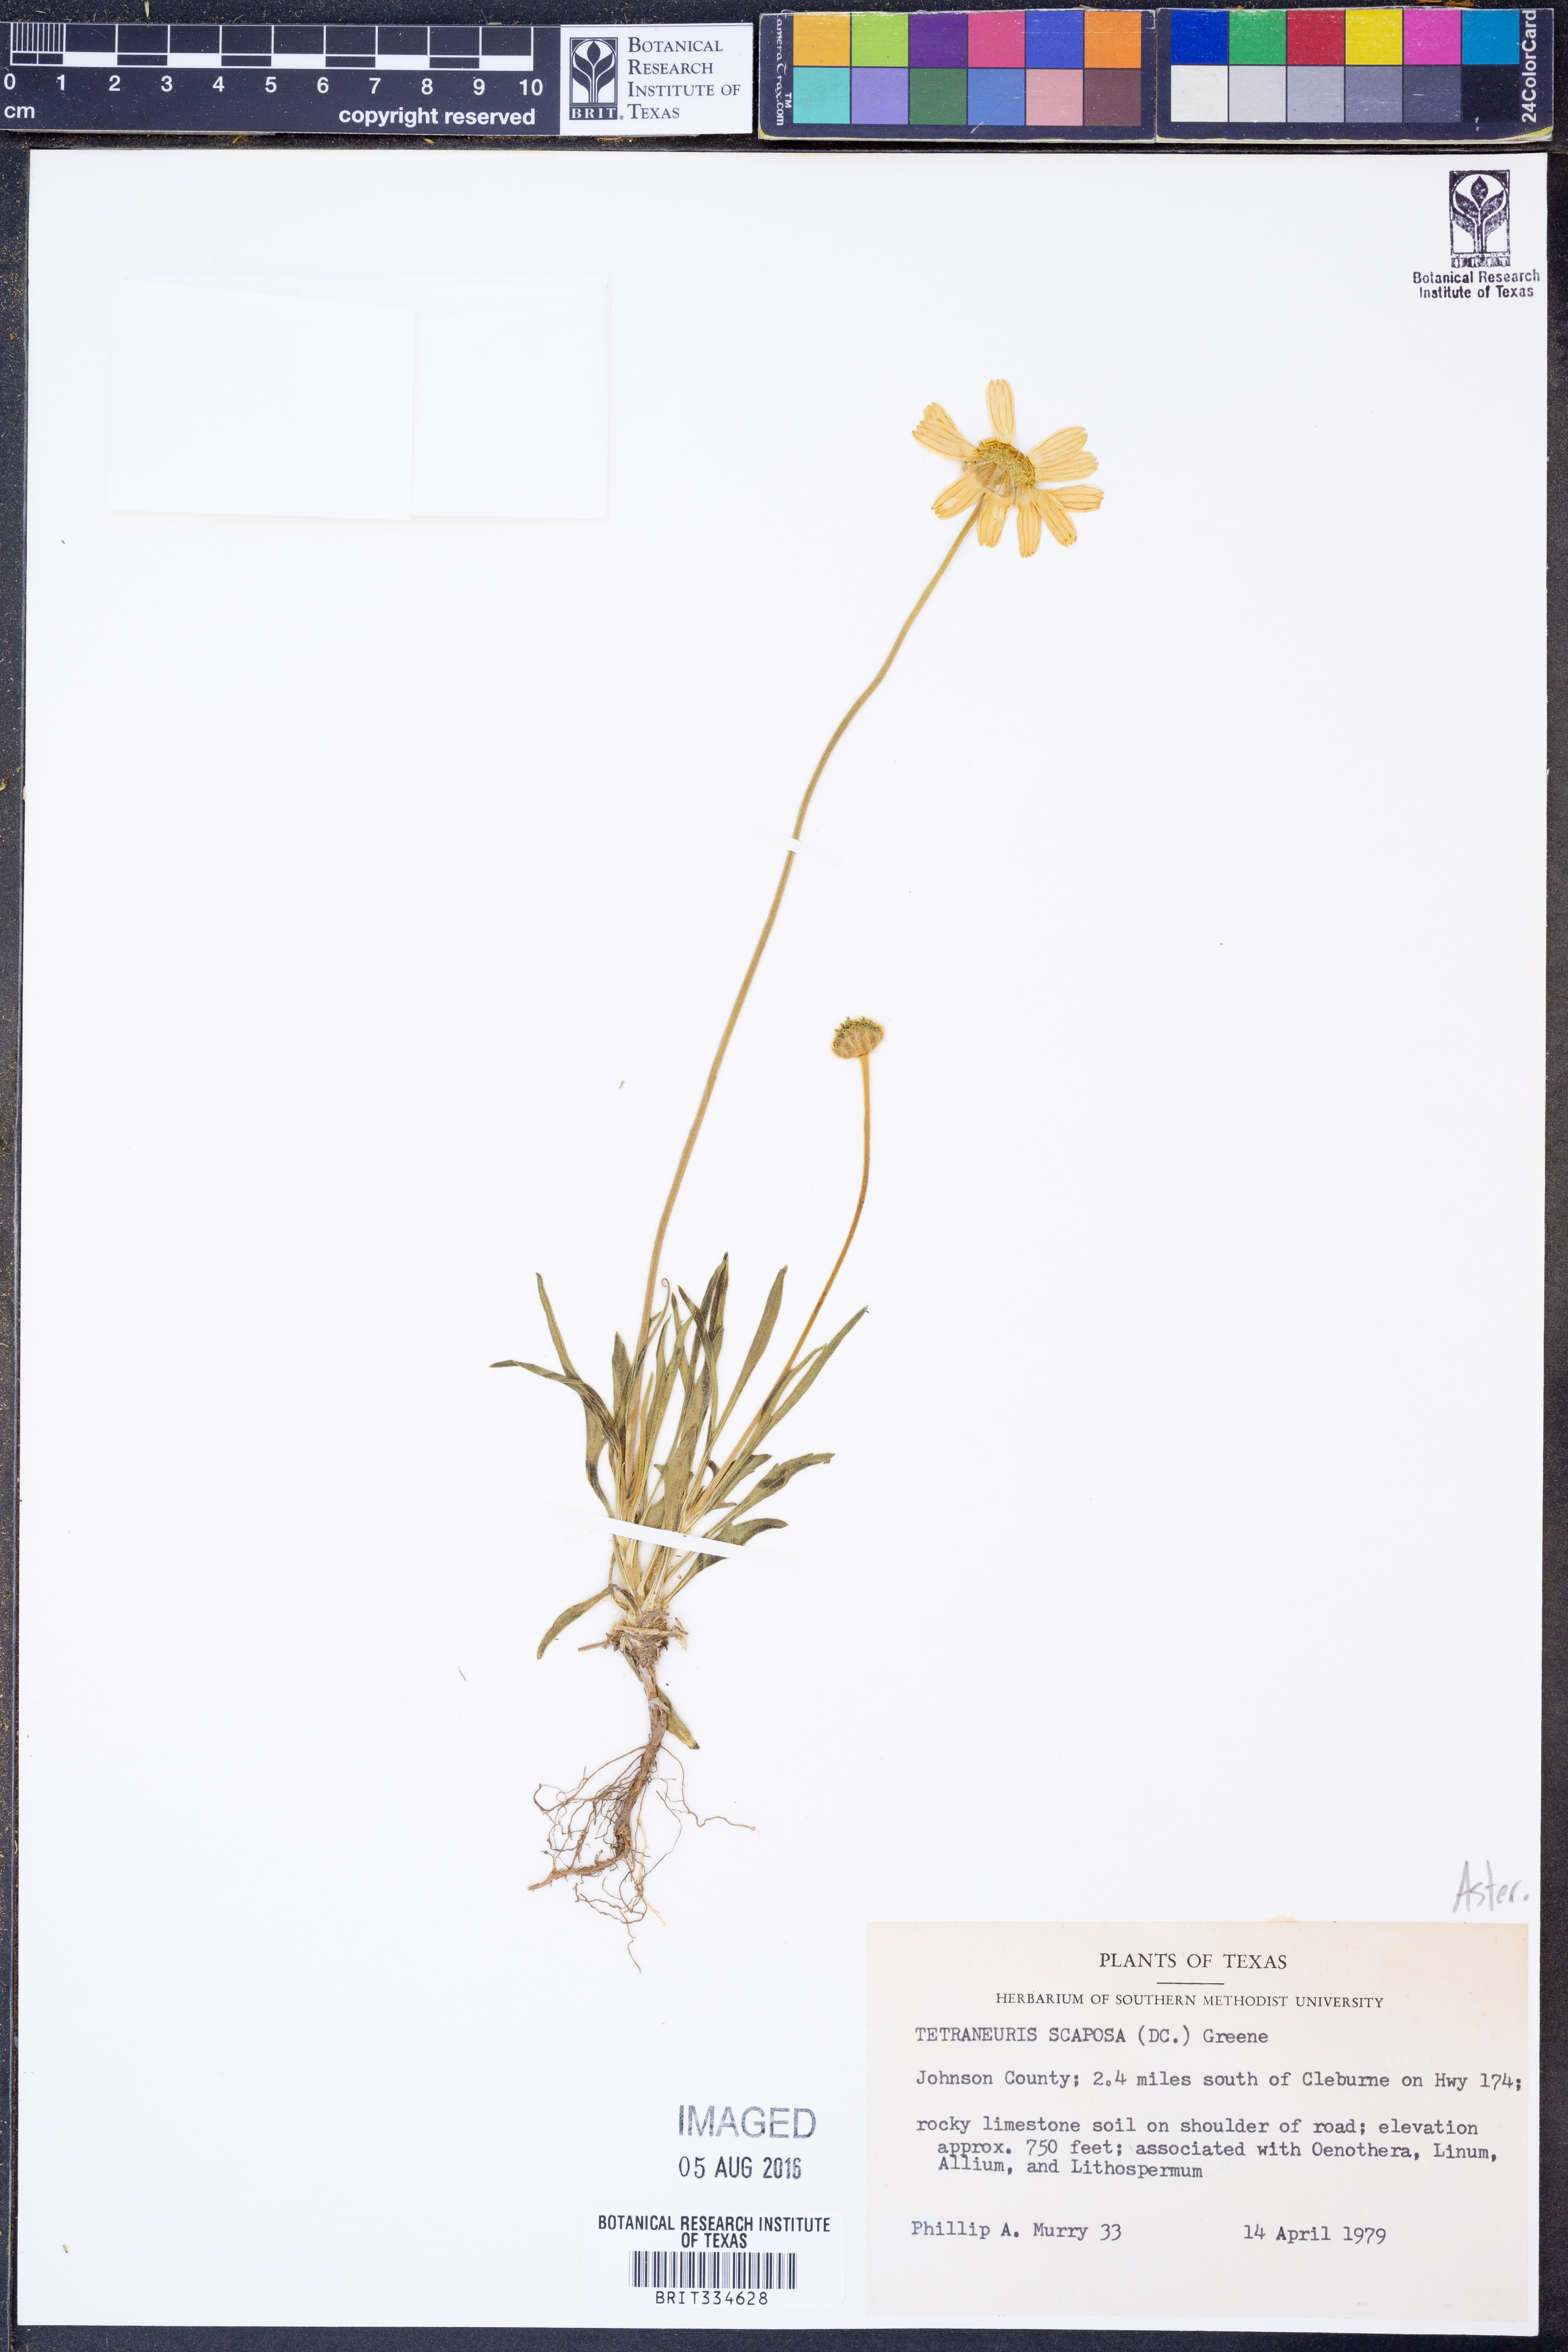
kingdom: Plantae
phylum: Tracheophyta
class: Magnoliopsida
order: Asterales
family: Asteraceae
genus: Tetraneuris
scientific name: Tetraneuris scaposa
